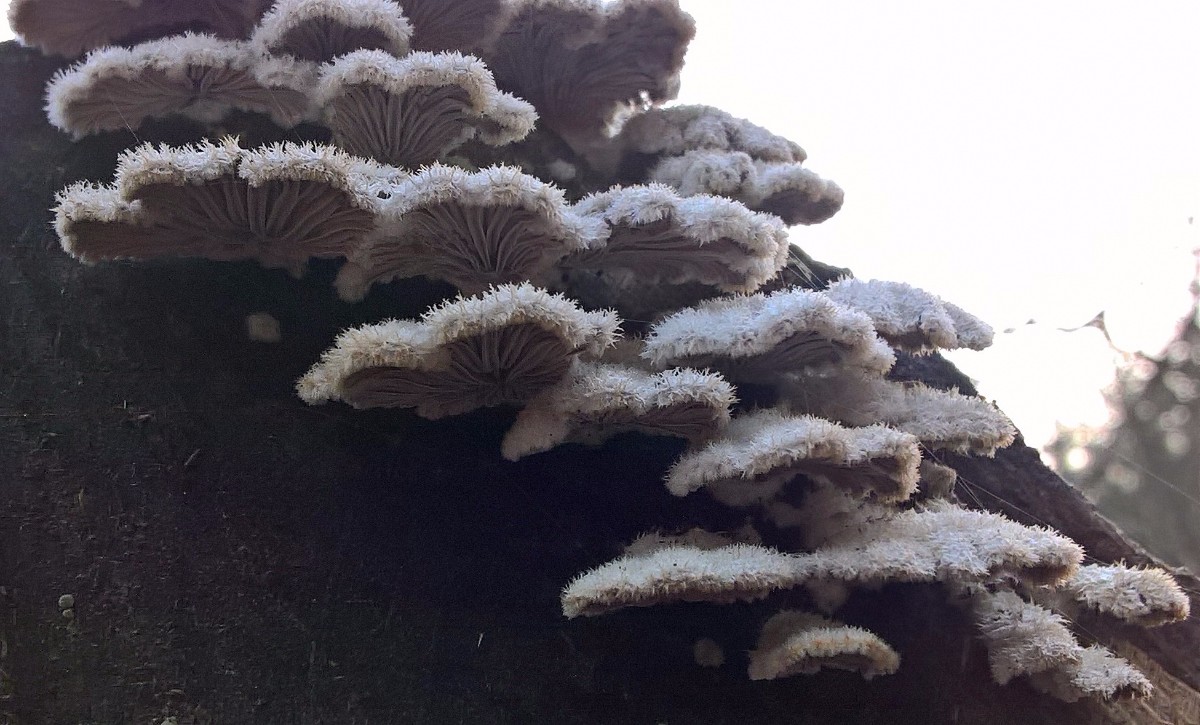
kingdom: Fungi
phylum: Basidiomycota
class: Agaricomycetes
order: Agaricales
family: Schizophyllaceae
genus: Schizophyllum
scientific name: Schizophyllum commune
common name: kløvblad
